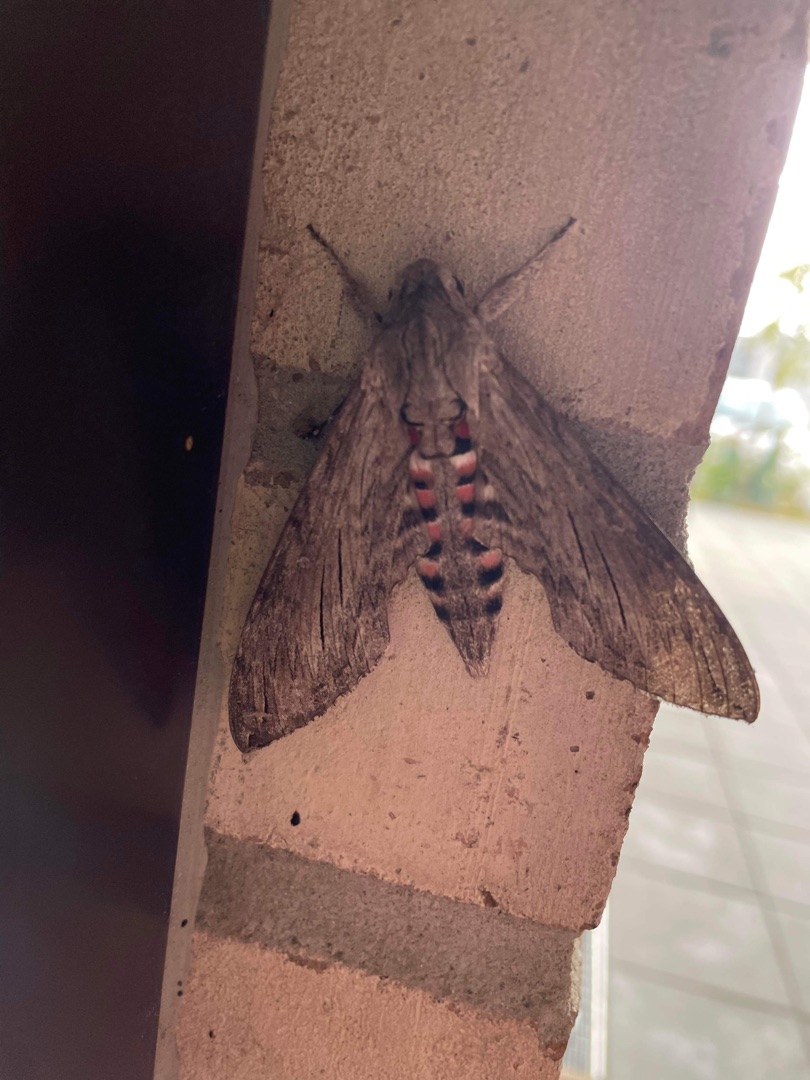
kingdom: Animalia
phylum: Arthropoda
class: Insecta
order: Lepidoptera
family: Sphingidae
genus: Agrius
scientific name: Agrius convolvuli
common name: Snerlesværmer
